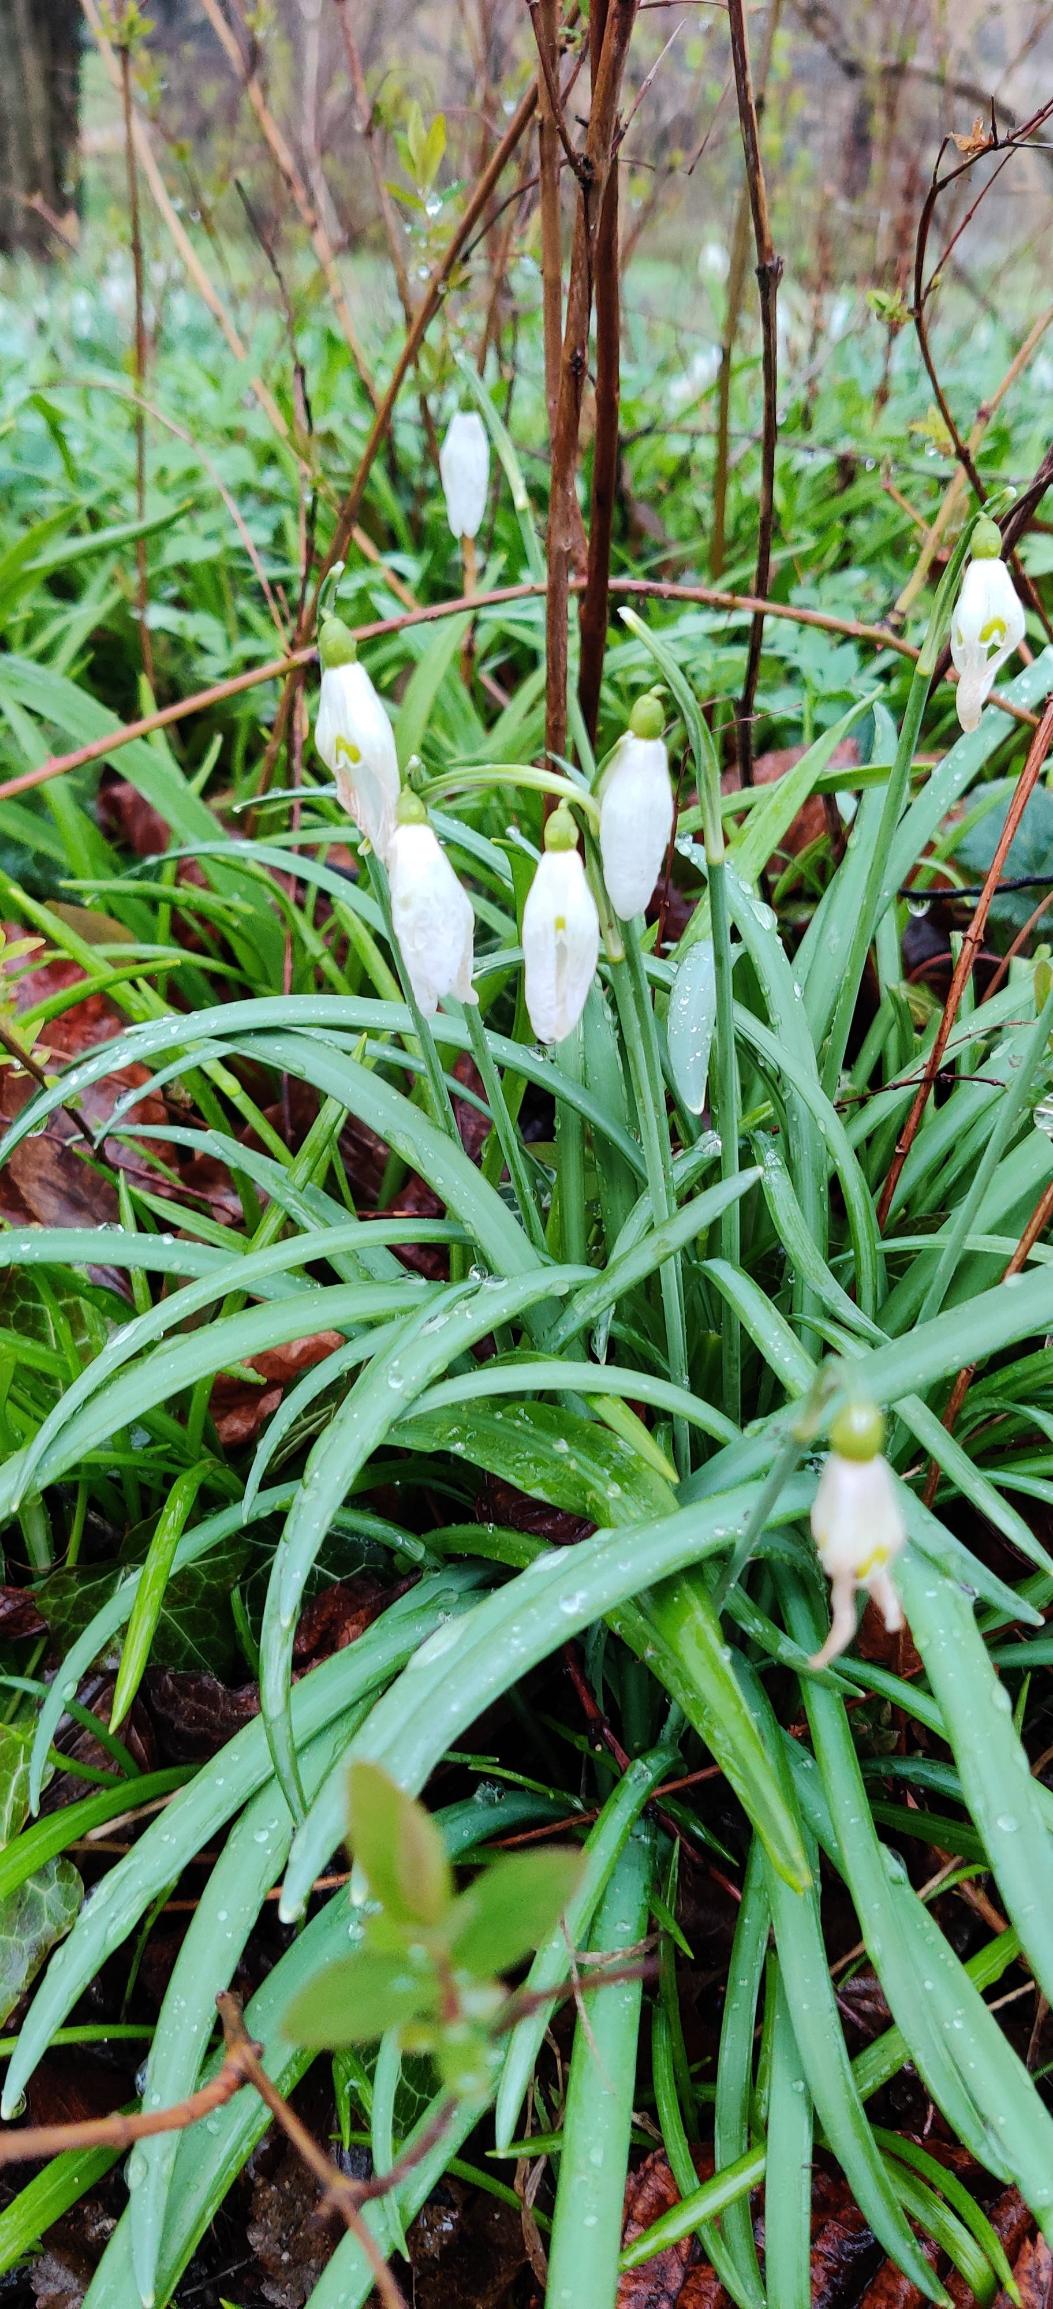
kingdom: Plantae
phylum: Tracheophyta
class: Liliopsida
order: Asparagales
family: Amaryllidaceae
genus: Galanthus
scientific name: Galanthus nivalis
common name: Vintergæk
